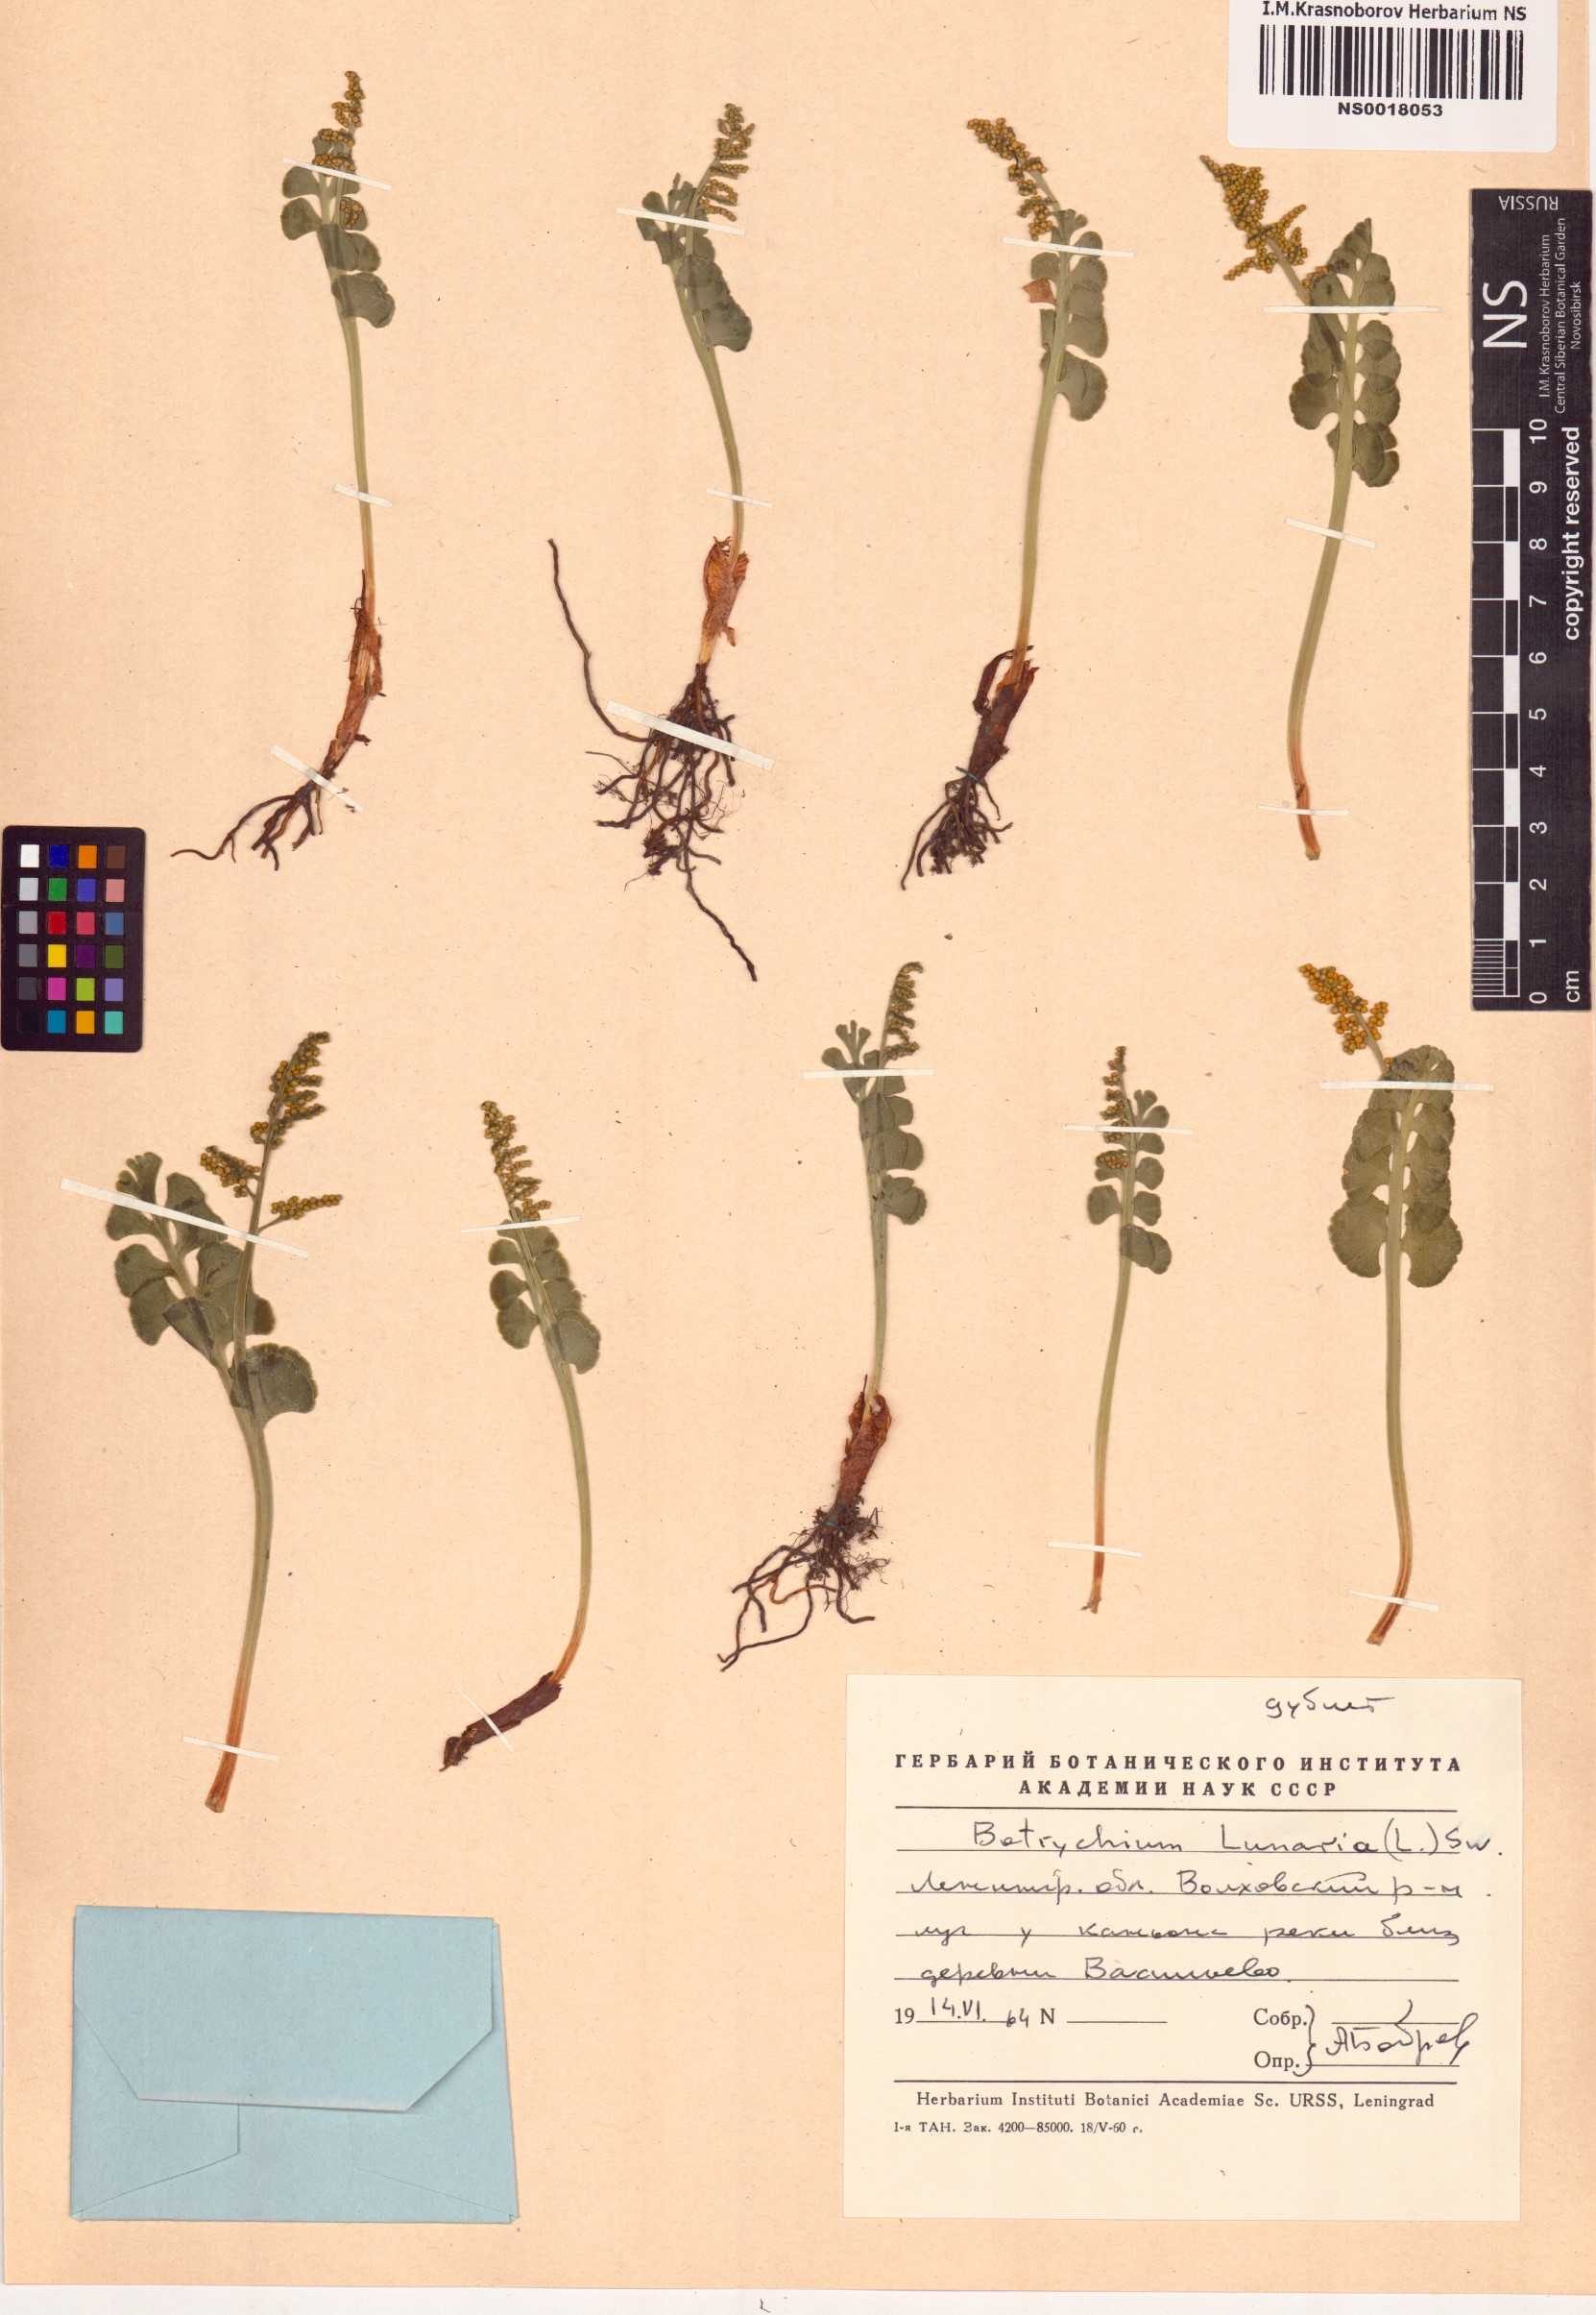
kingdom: Plantae
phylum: Tracheophyta
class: Polypodiopsida
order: Ophioglossales
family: Ophioglossaceae
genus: Botrychium
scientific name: Botrychium lunaria
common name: Moonwort
